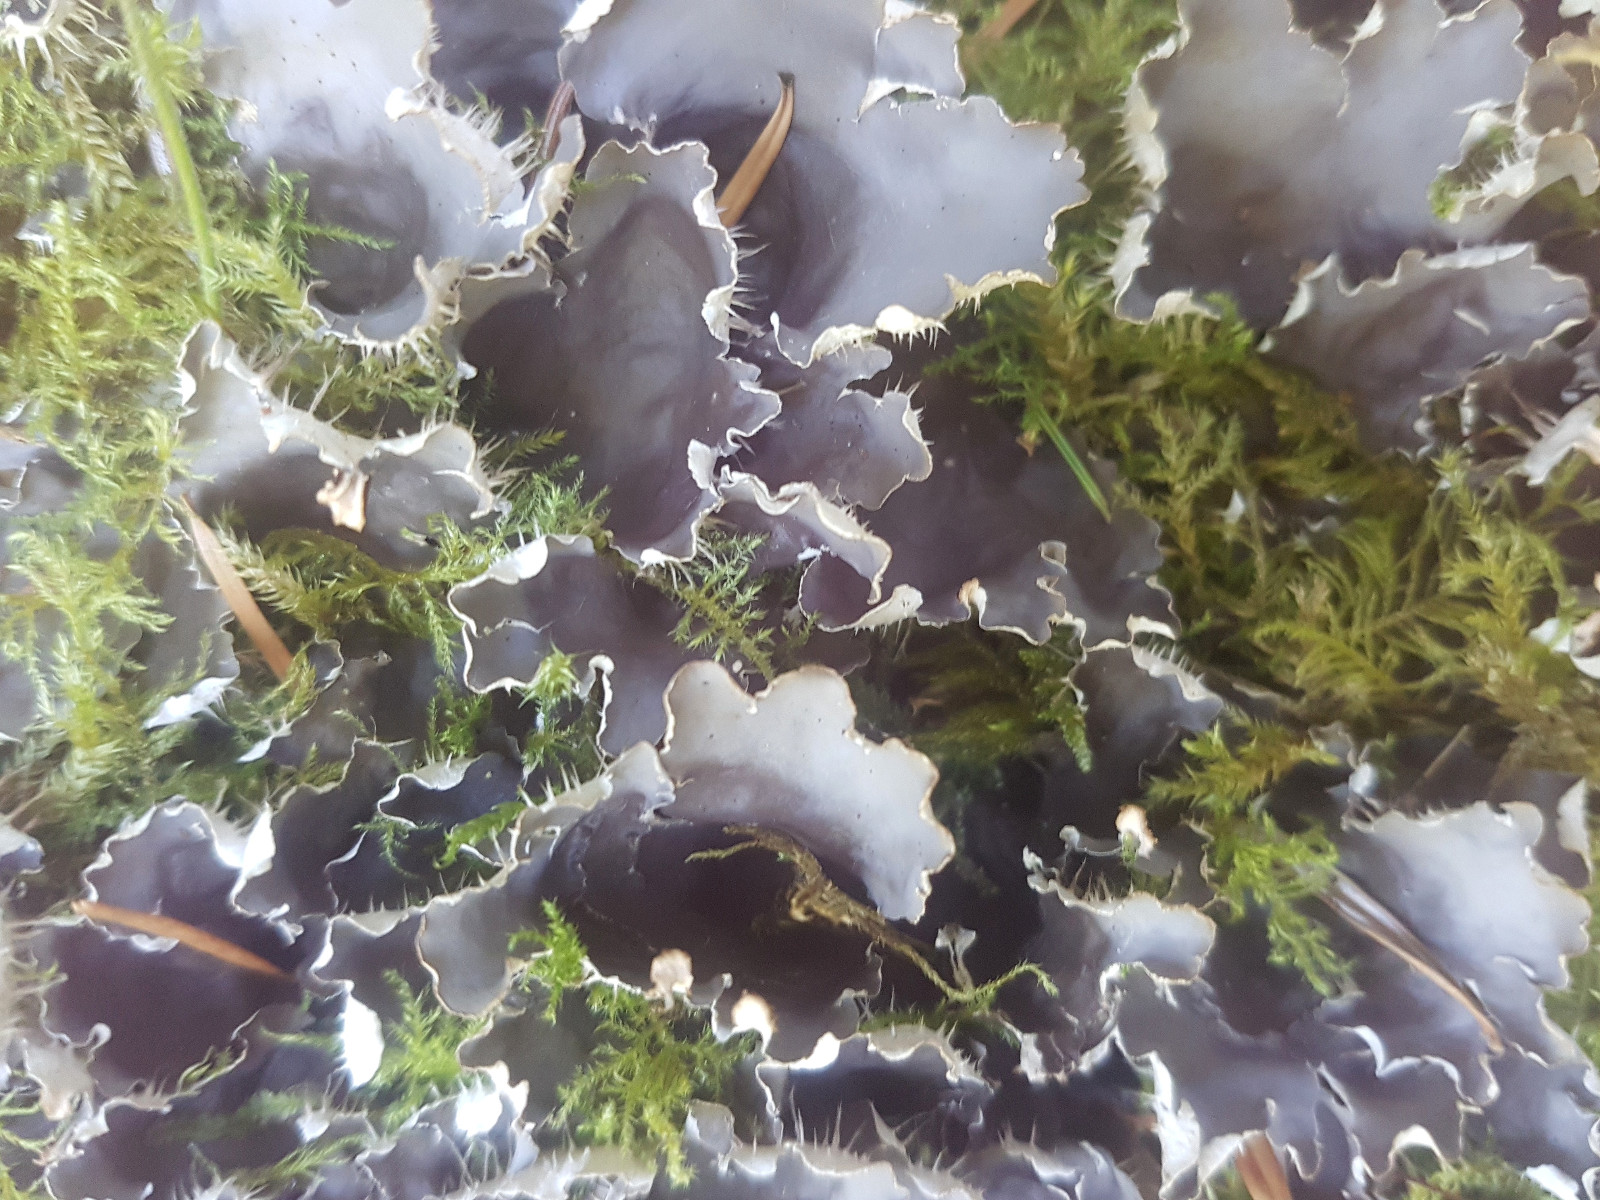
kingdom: Fungi
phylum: Ascomycota
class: Lecanoromycetes
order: Peltigerales
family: Peltigeraceae
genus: Peltigera
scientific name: Peltigera hymenina
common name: hinde-skjoldlav
